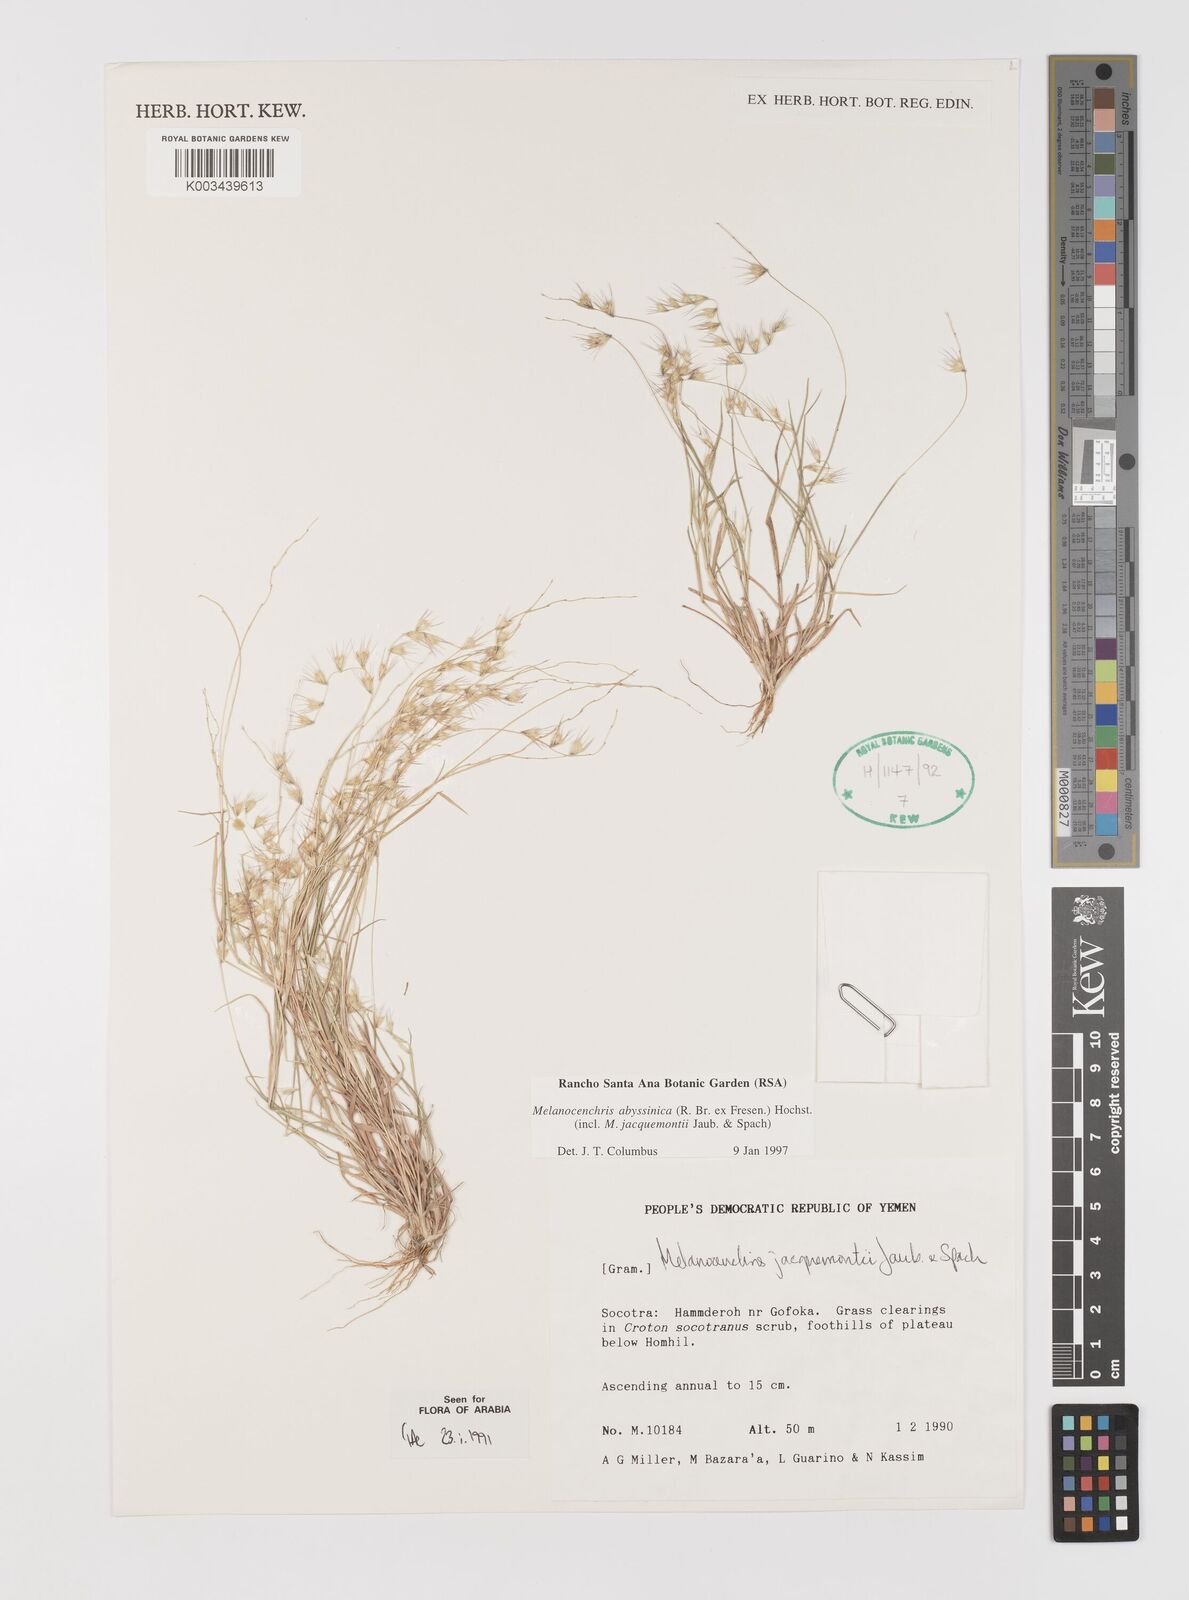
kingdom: Plantae
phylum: Tracheophyta
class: Liliopsida
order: Poales
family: Poaceae
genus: Melanocenchris
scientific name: Melanocenchris abyssinica
